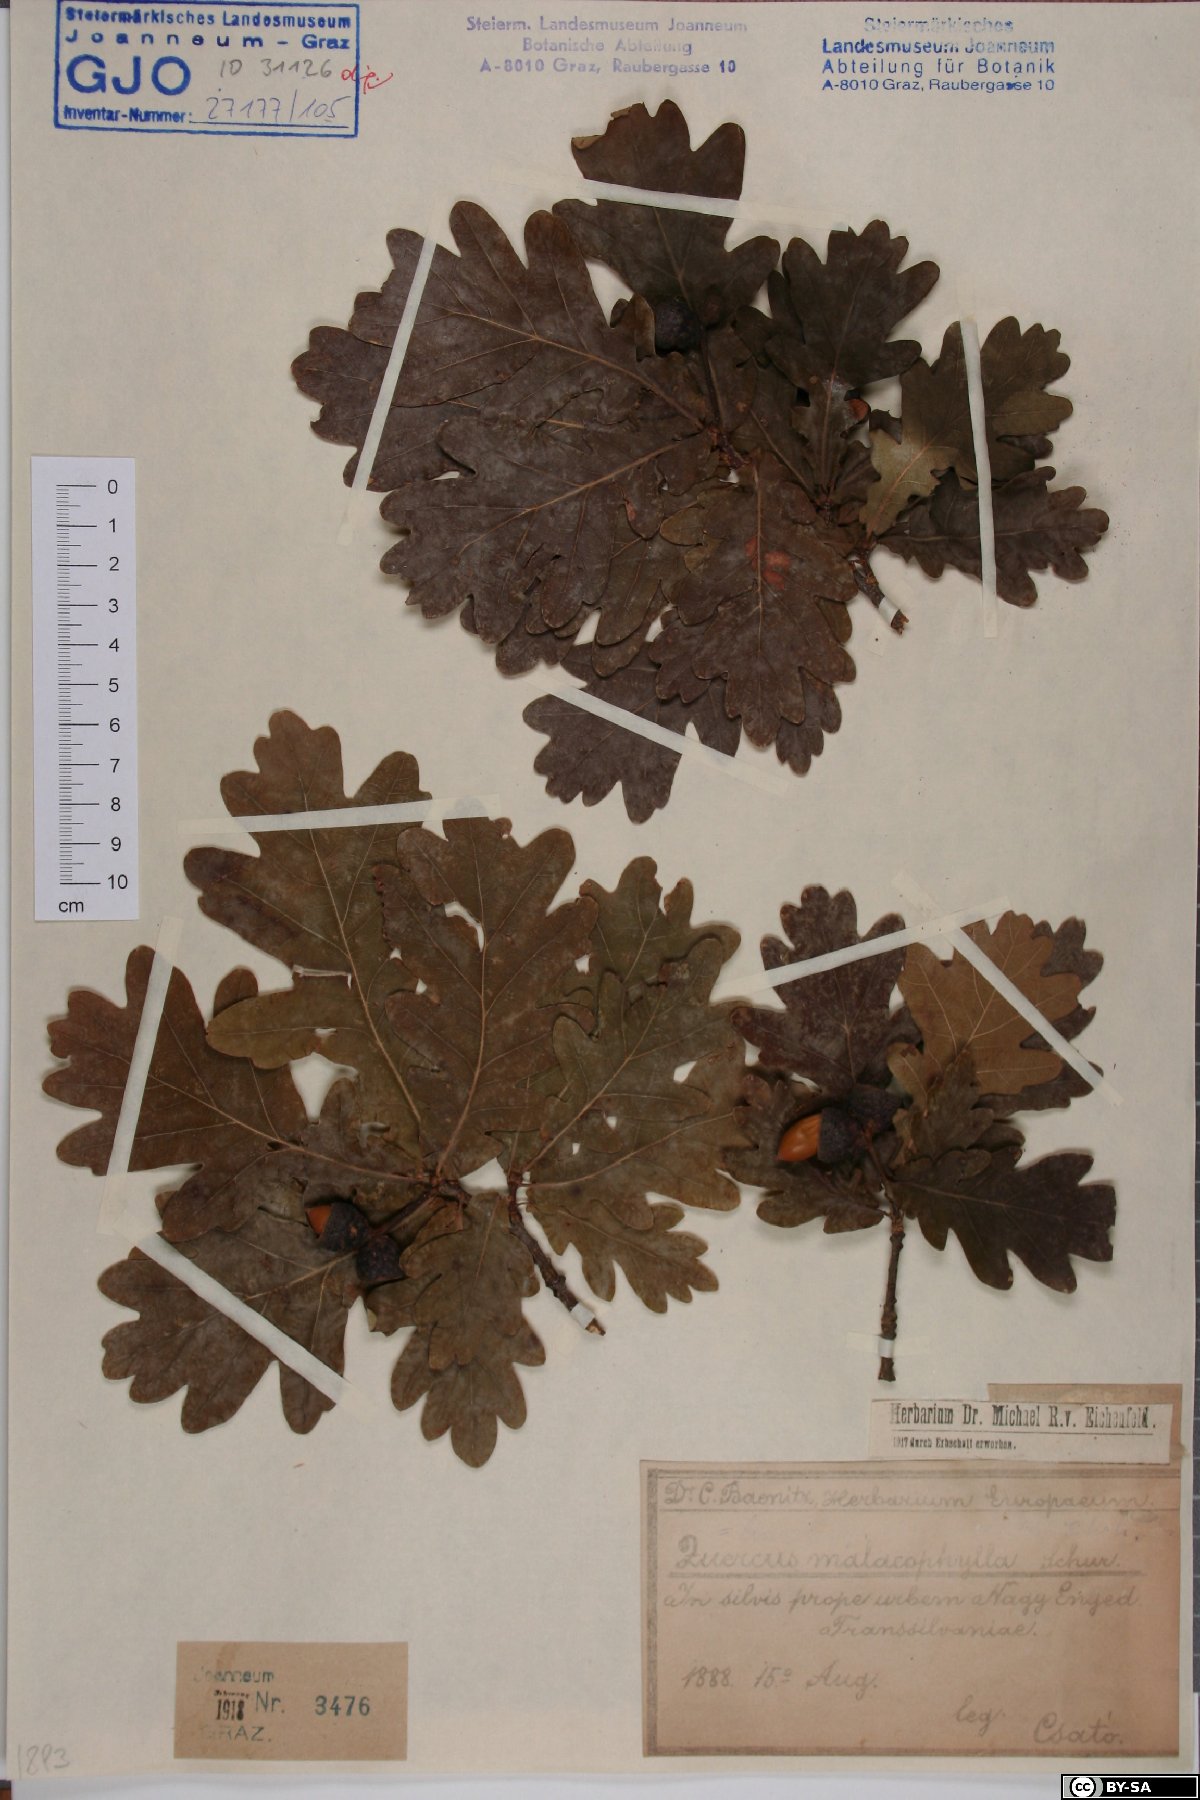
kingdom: Plantae
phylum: Tracheophyta
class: Magnoliopsida
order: Fagales
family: Fagaceae
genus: Quercus
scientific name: Quercus robur
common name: Pedunculate oak
